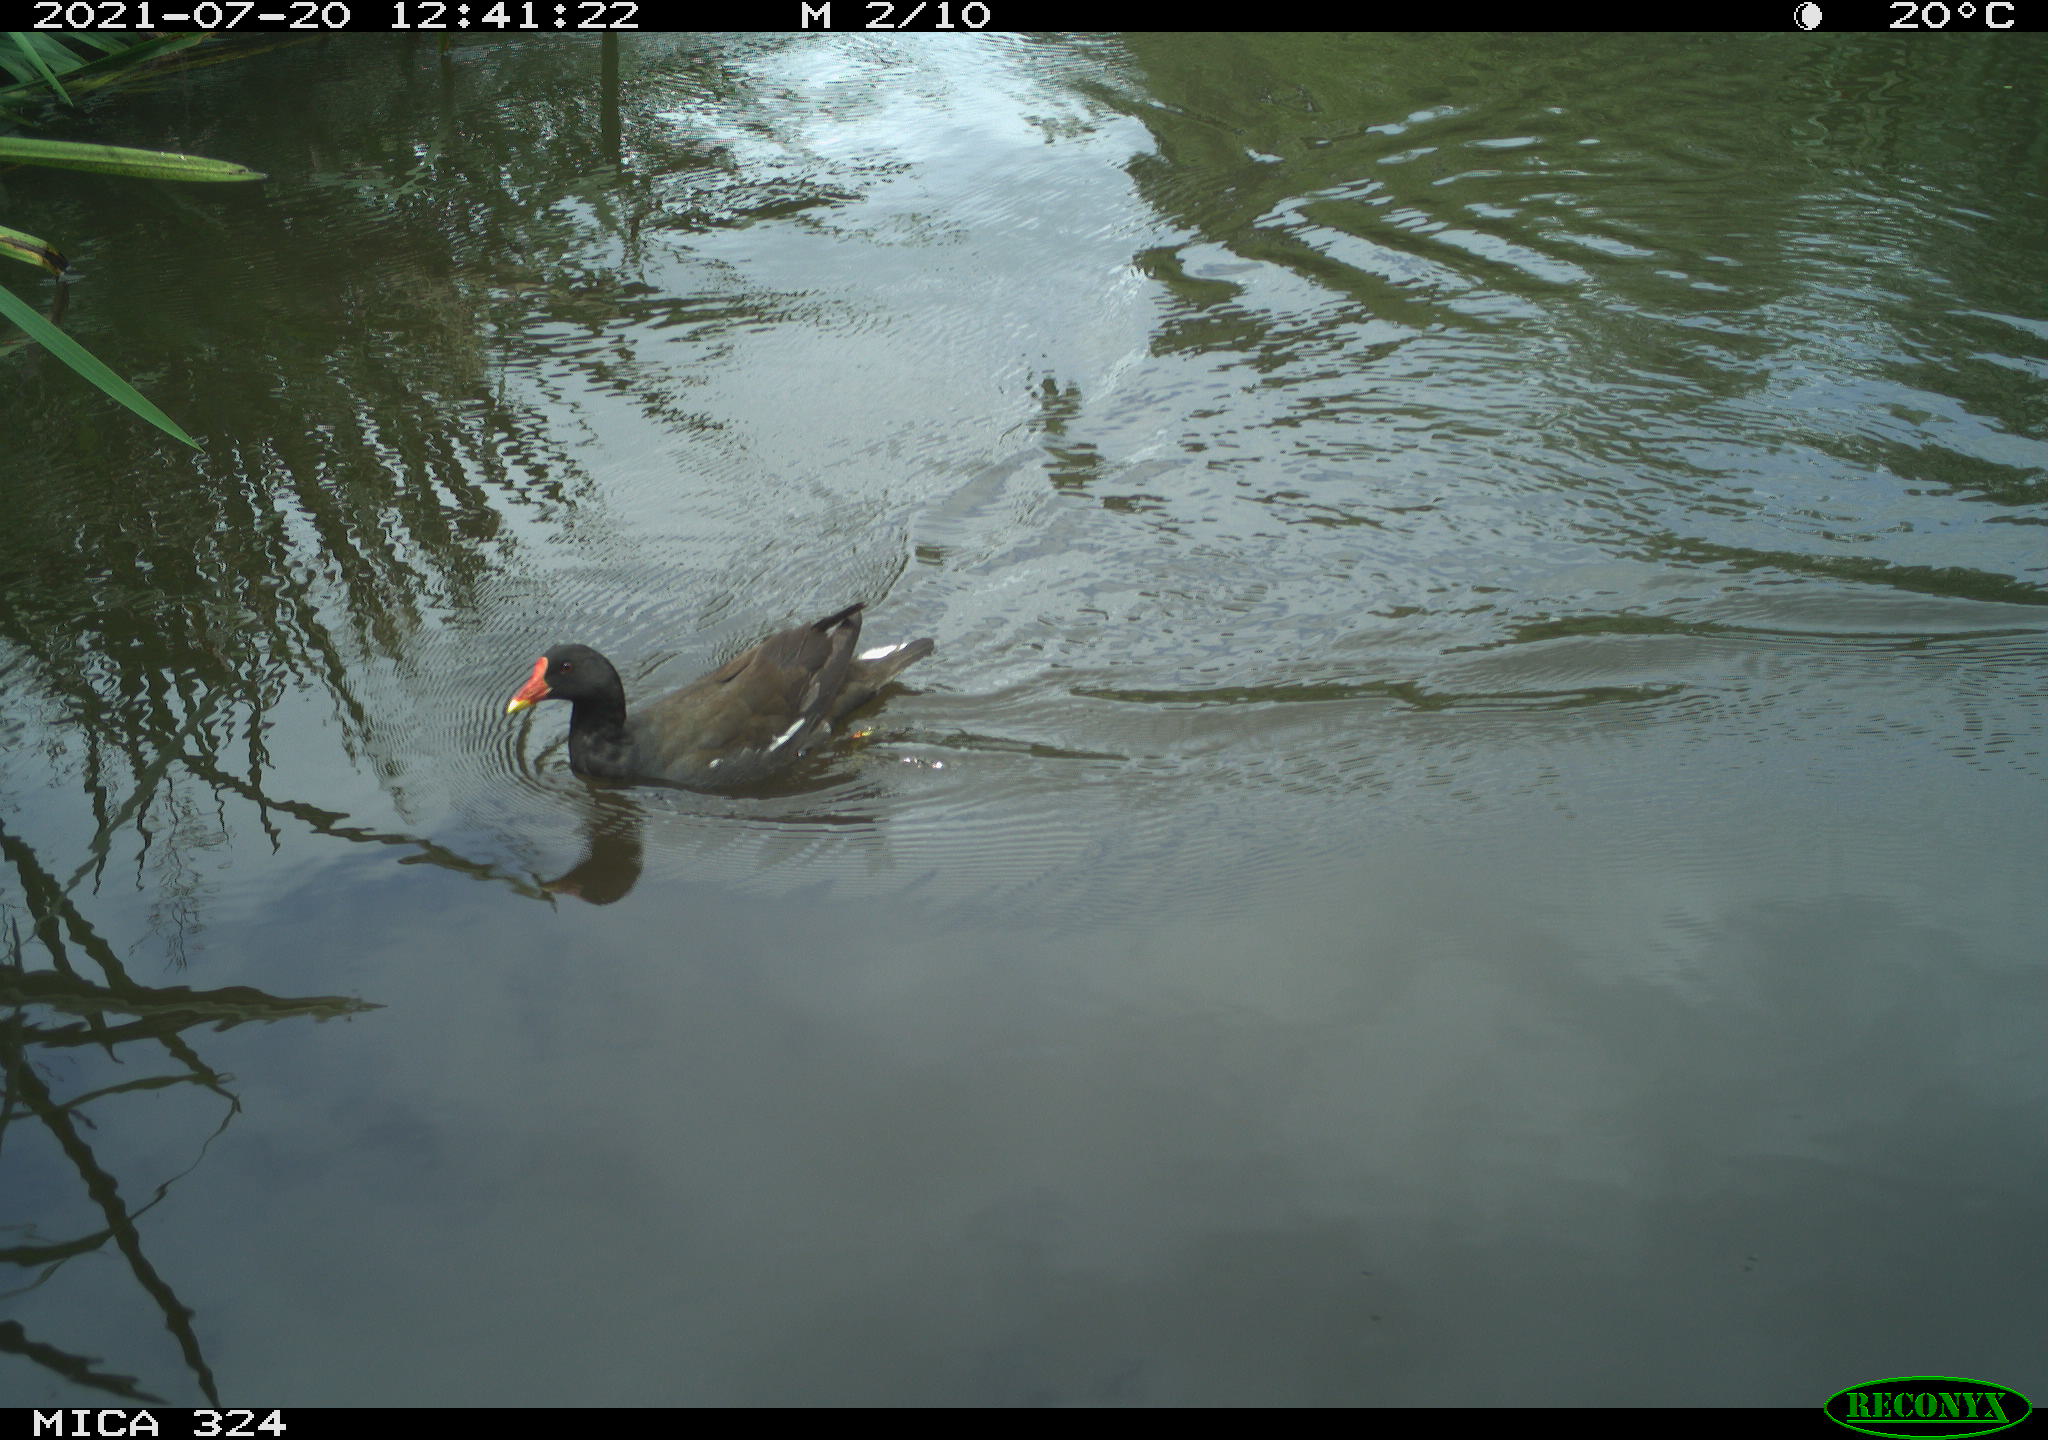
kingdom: Animalia
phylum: Chordata
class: Aves
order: Gruiformes
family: Rallidae
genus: Gallinula
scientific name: Gallinula chloropus
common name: Common moorhen
